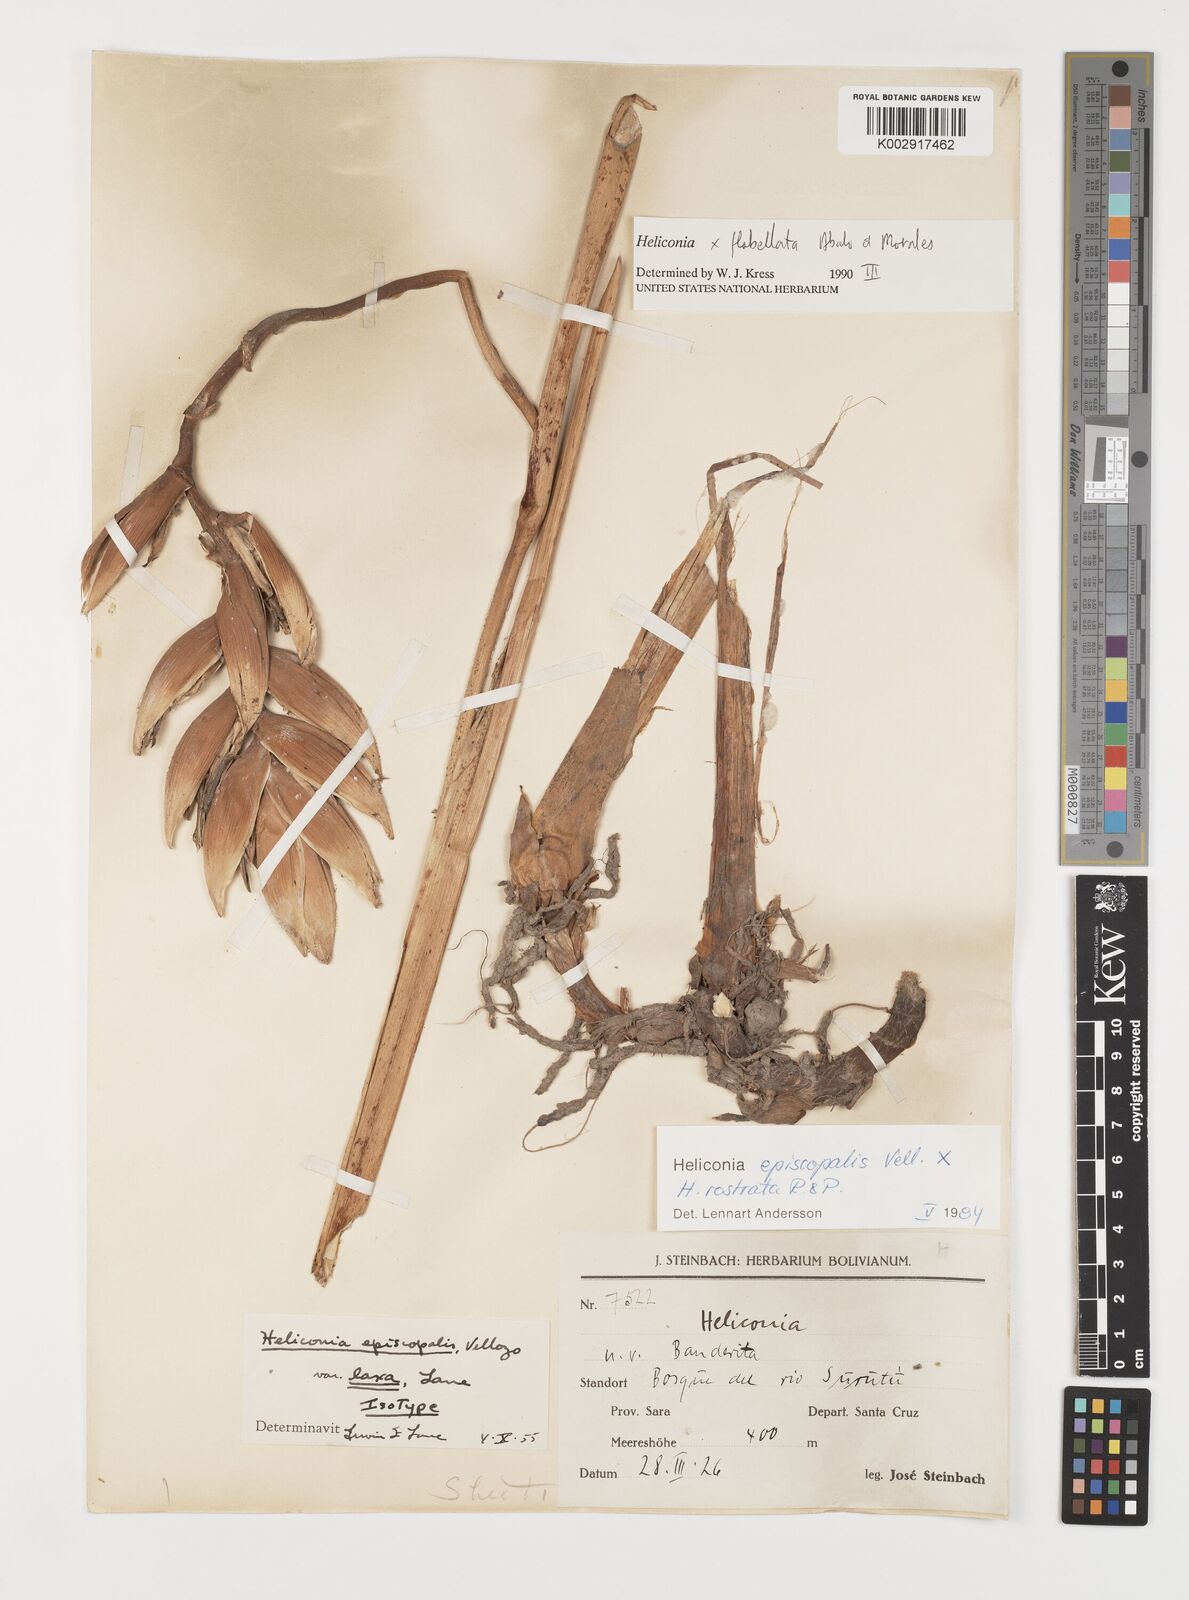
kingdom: Plantae
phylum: Tracheophyta
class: Liliopsida
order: Zingiberales
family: Heliconiaceae
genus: Heliconia
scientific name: Heliconia flabellata
